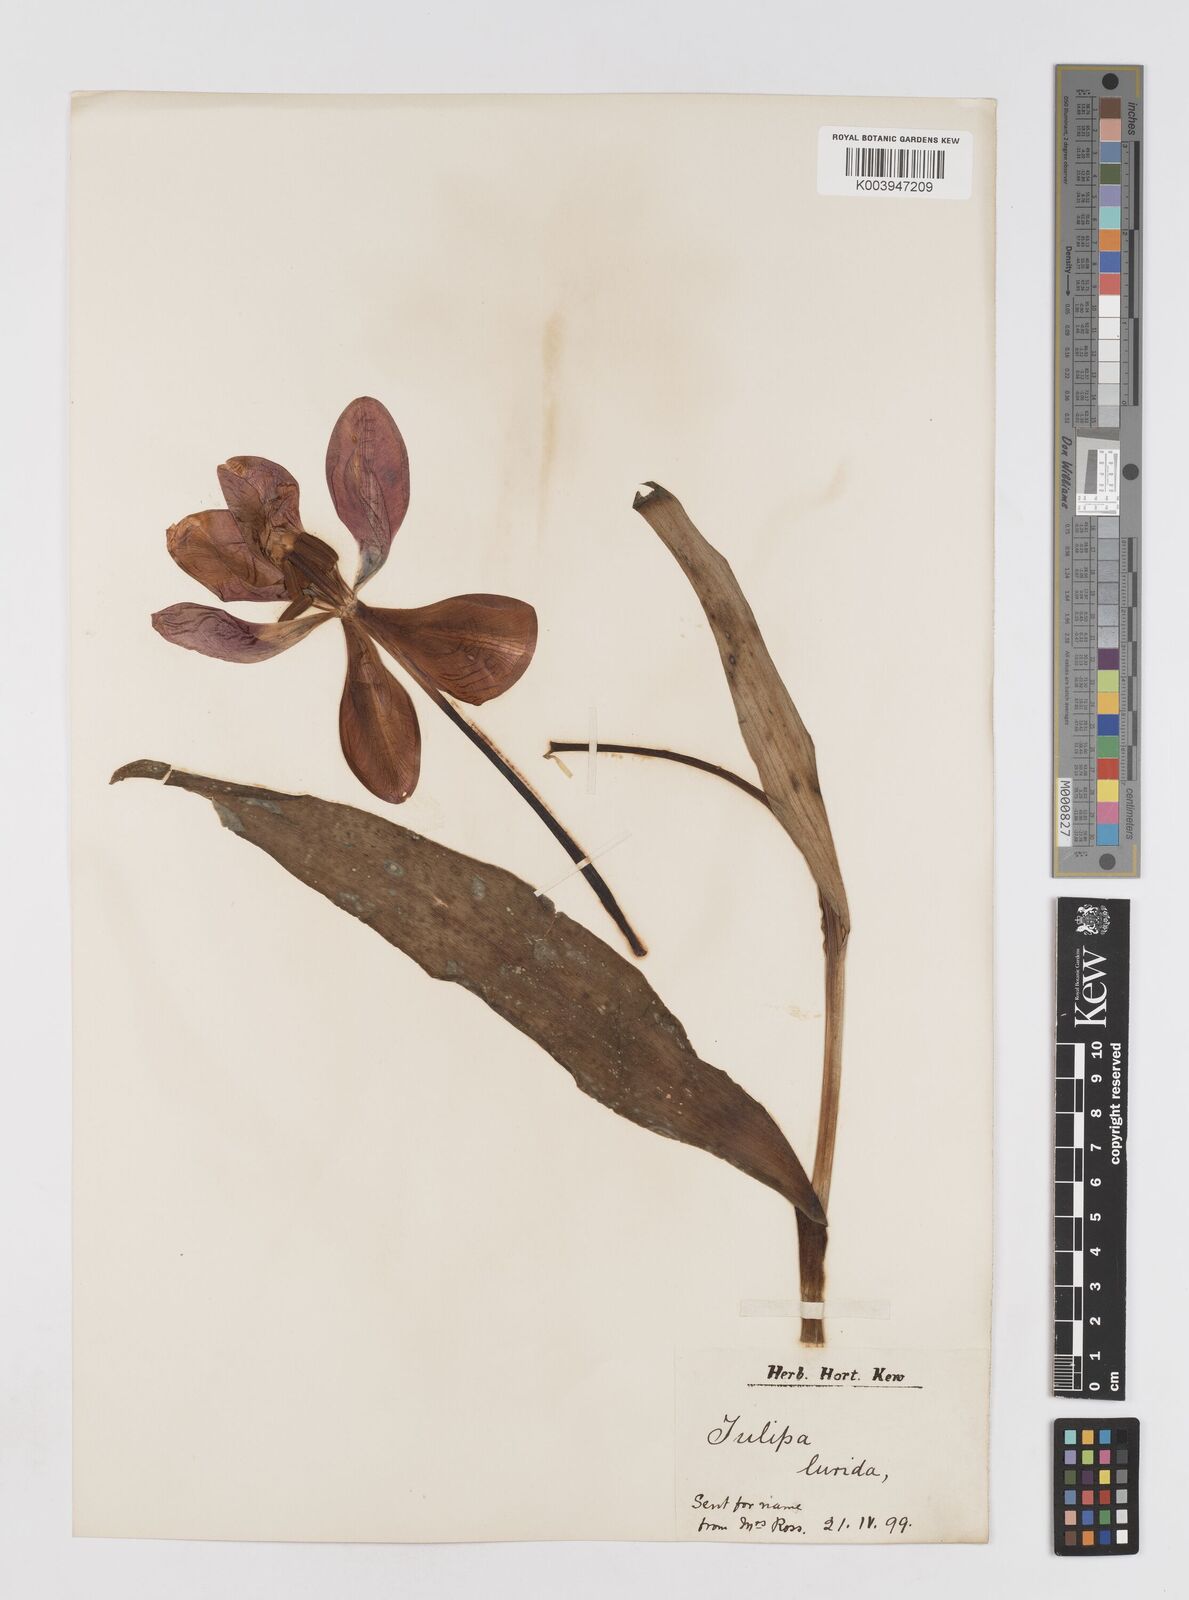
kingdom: Plantae
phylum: Tracheophyta
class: Liliopsida
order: Liliales
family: Liliaceae
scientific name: Liliaceae
